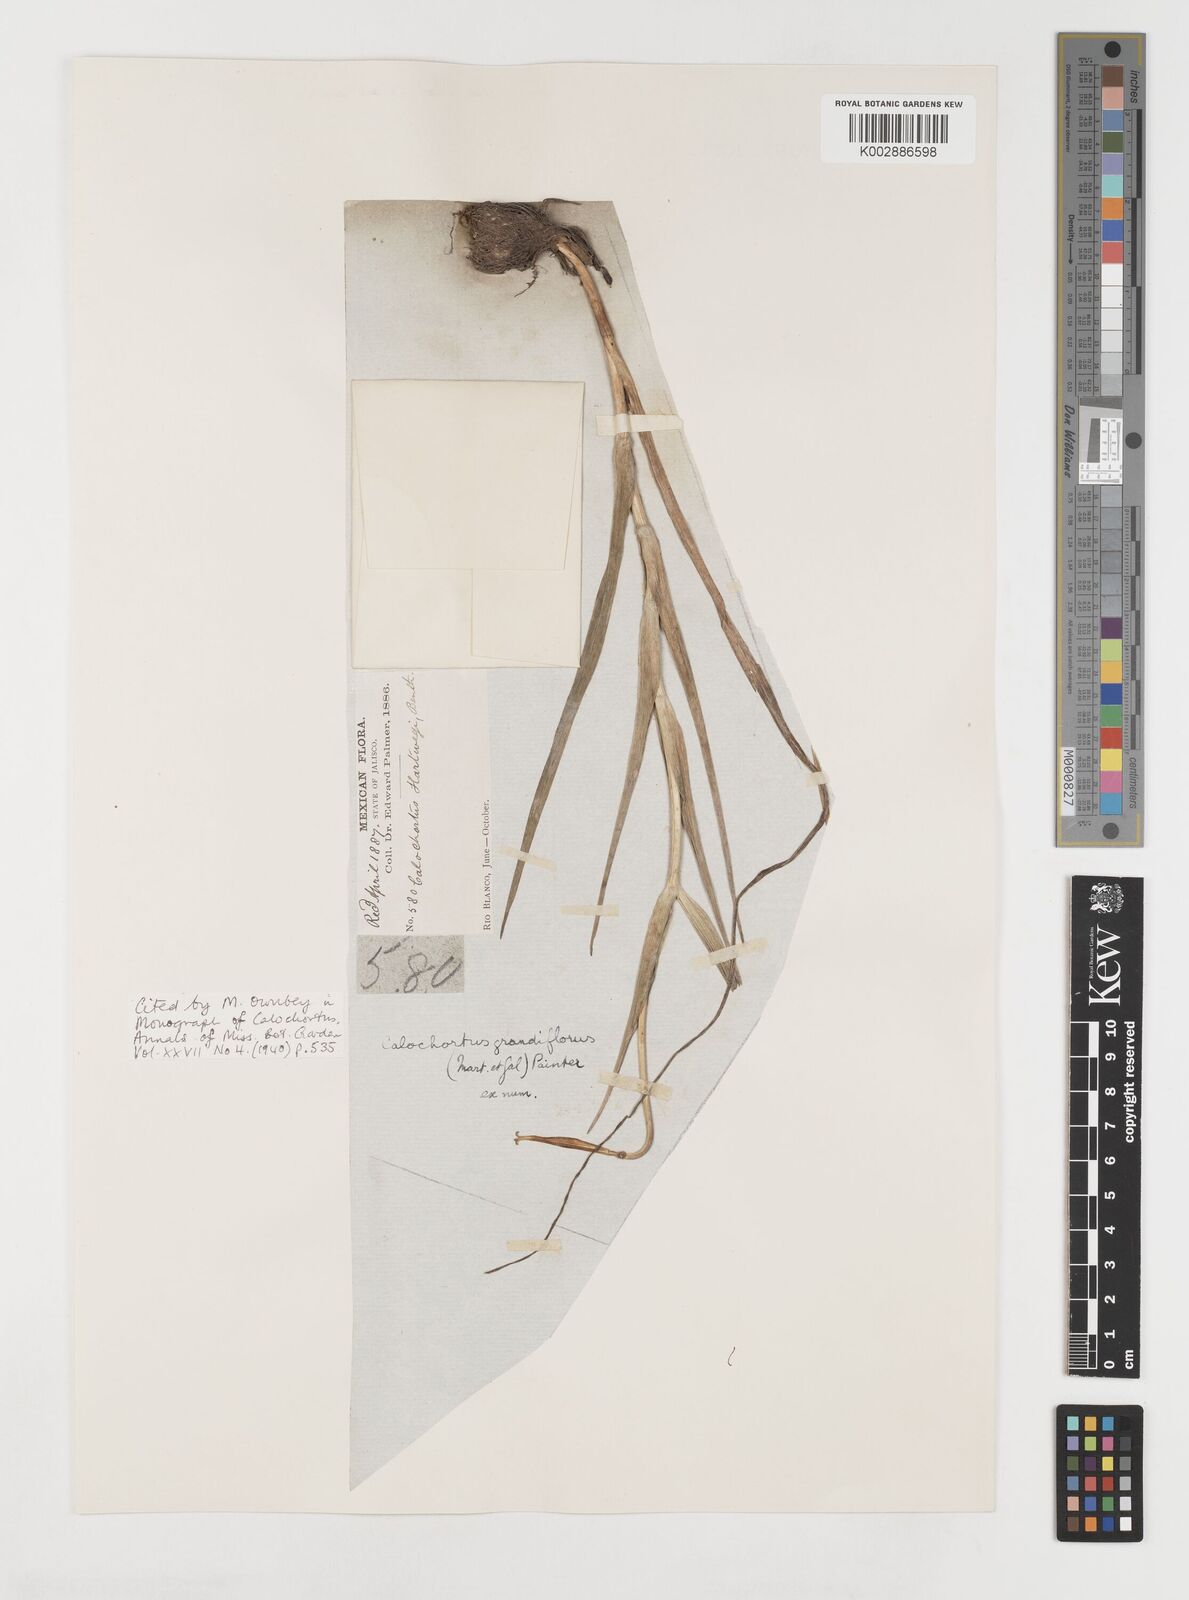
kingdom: Plantae
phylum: Tracheophyta
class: Liliopsida
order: Liliales
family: Liliaceae
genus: Calochortus
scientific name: Calochortus hartwegii
